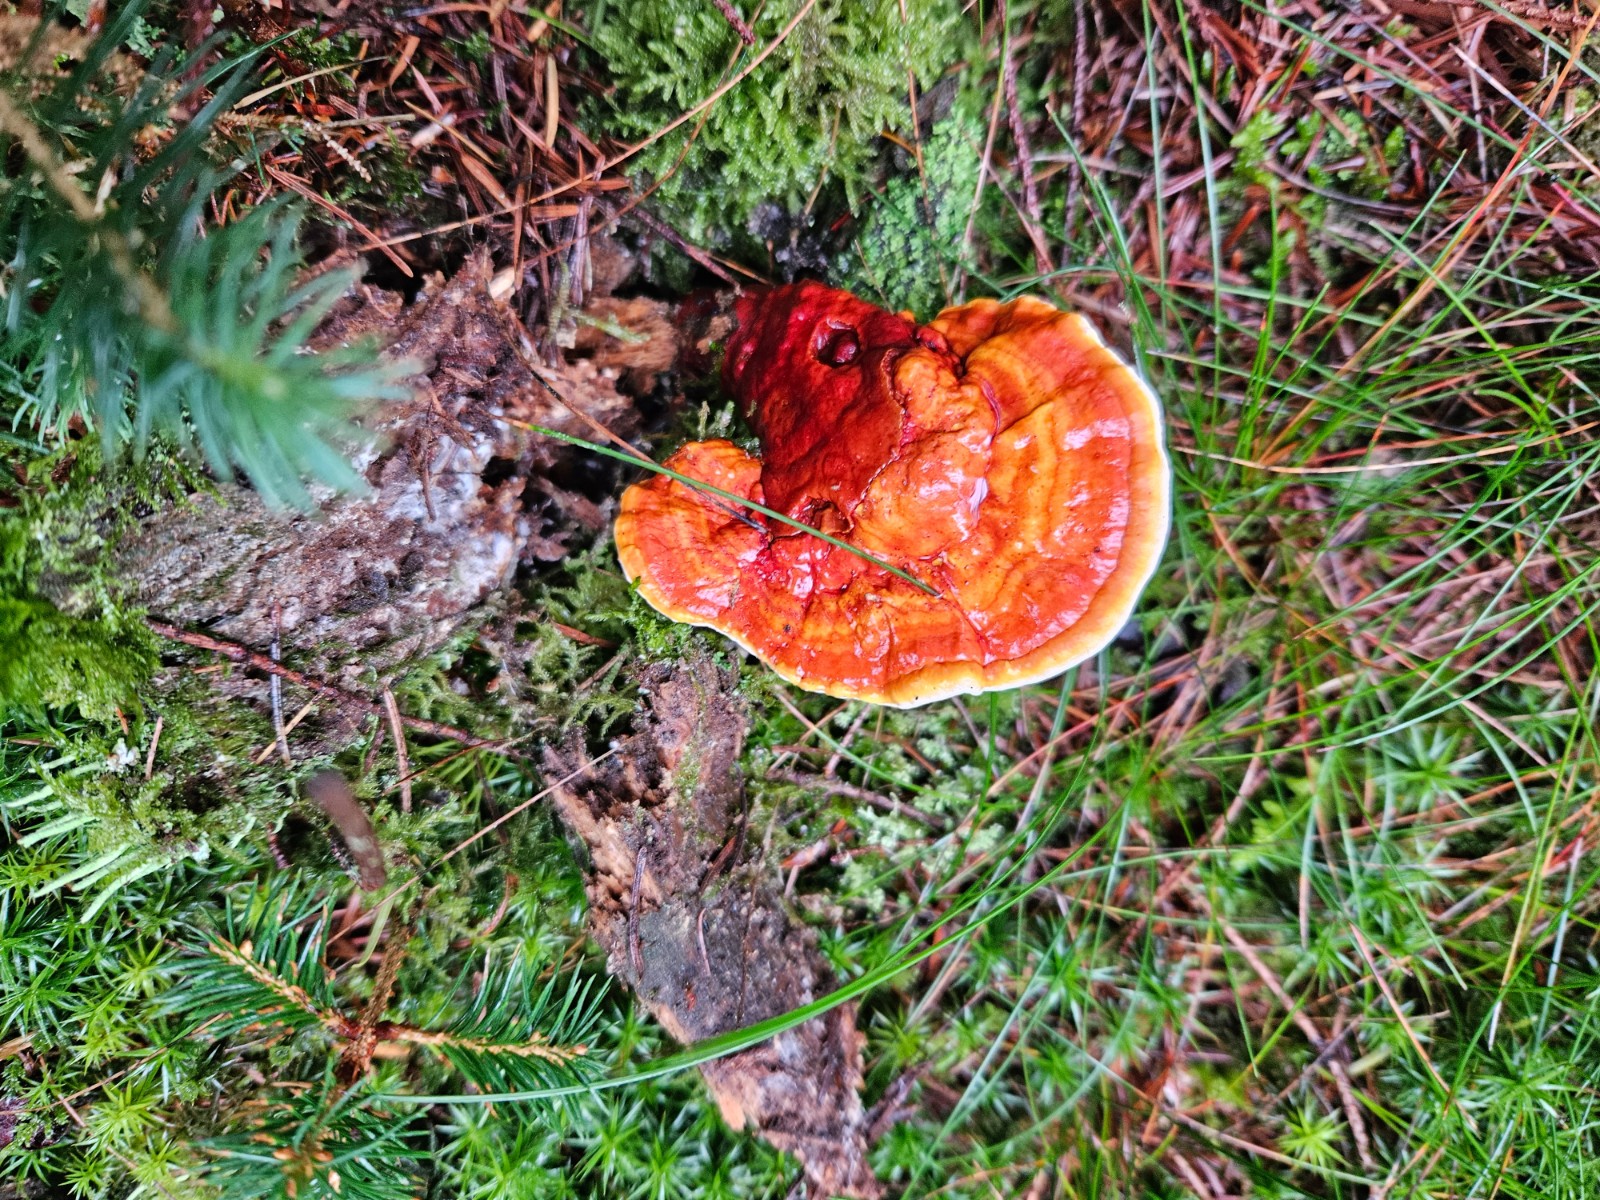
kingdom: Fungi
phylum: Basidiomycota
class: Agaricomycetes
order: Polyporales
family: Polyporaceae
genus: Ganoderma
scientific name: Ganoderma lucidum
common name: skinnende lakporesvamp
